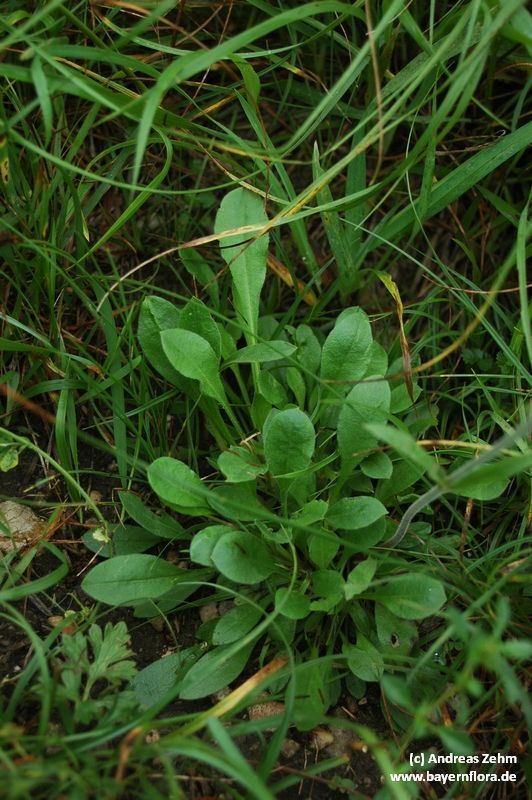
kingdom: Plantae
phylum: Tracheophyta
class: Magnoliopsida
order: Caryophyllales
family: Caryophyllaceae
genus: Silene
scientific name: Silene nutans
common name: Nottingham catchfly
